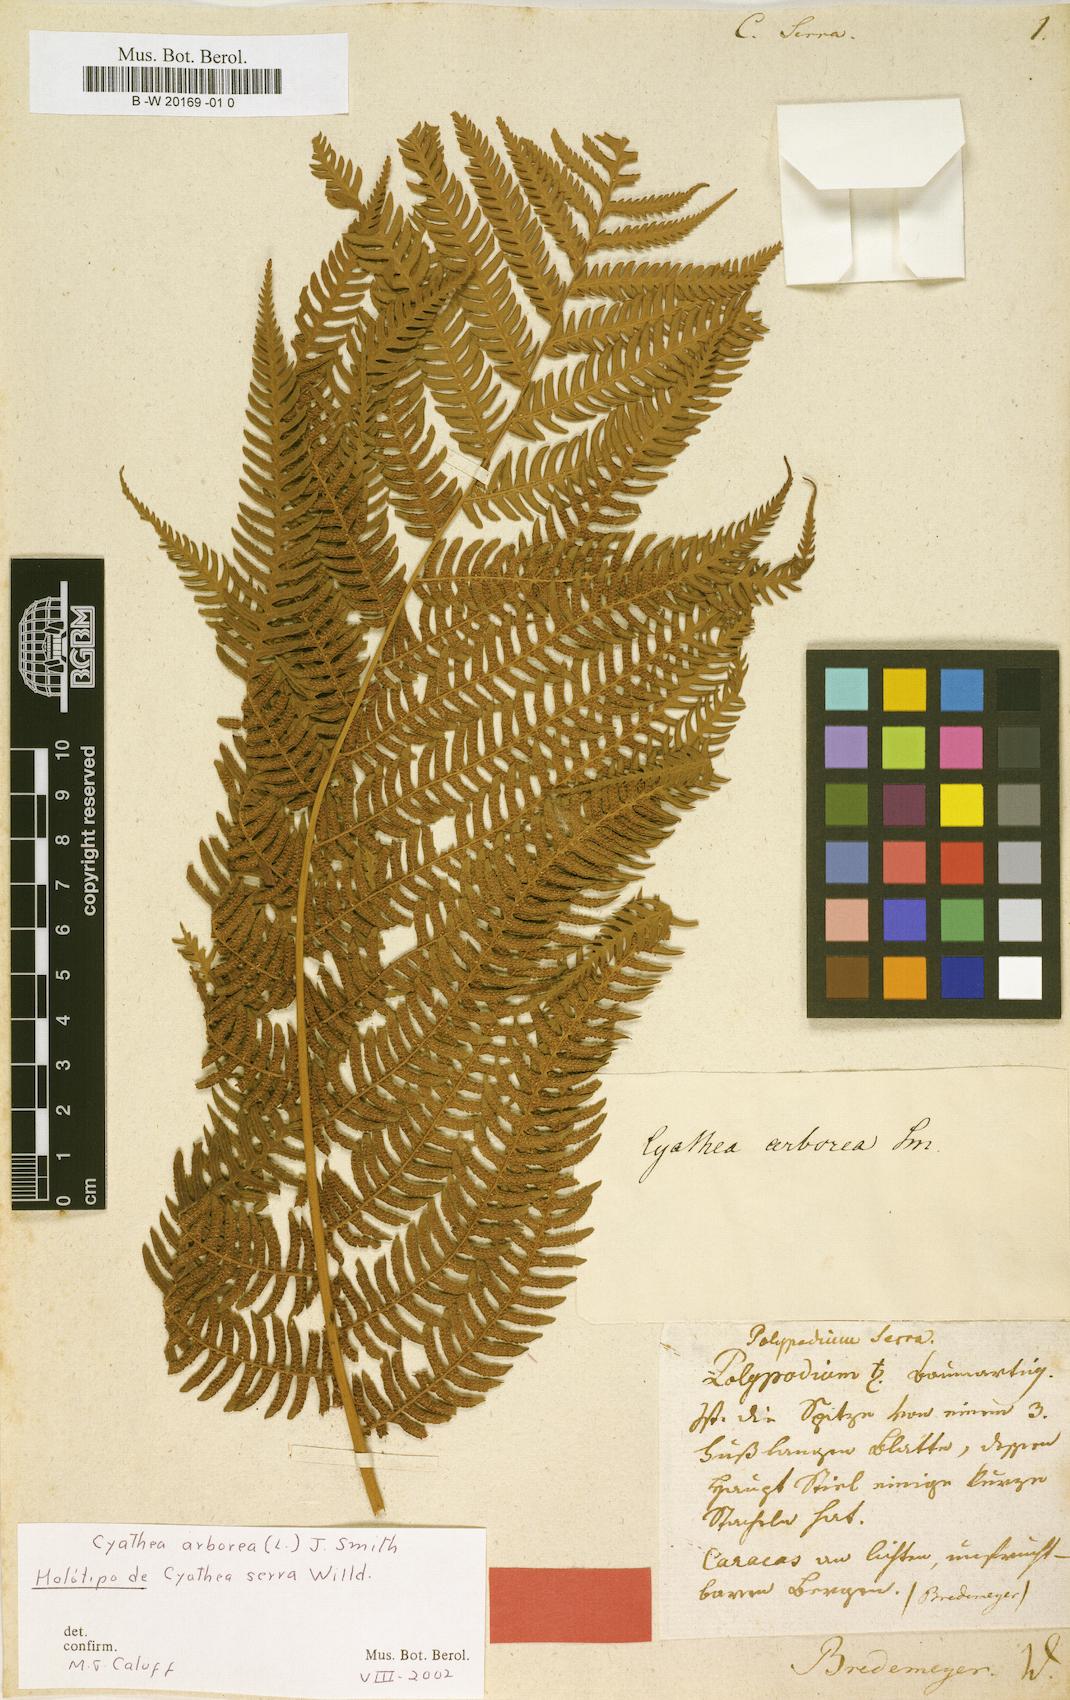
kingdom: Plantae
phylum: Tracheophyta
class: Polypodiopsida
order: Cyatheales
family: Cyatheaceae
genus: Cyathea
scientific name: Cyathea arborea
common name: West indian treefern
